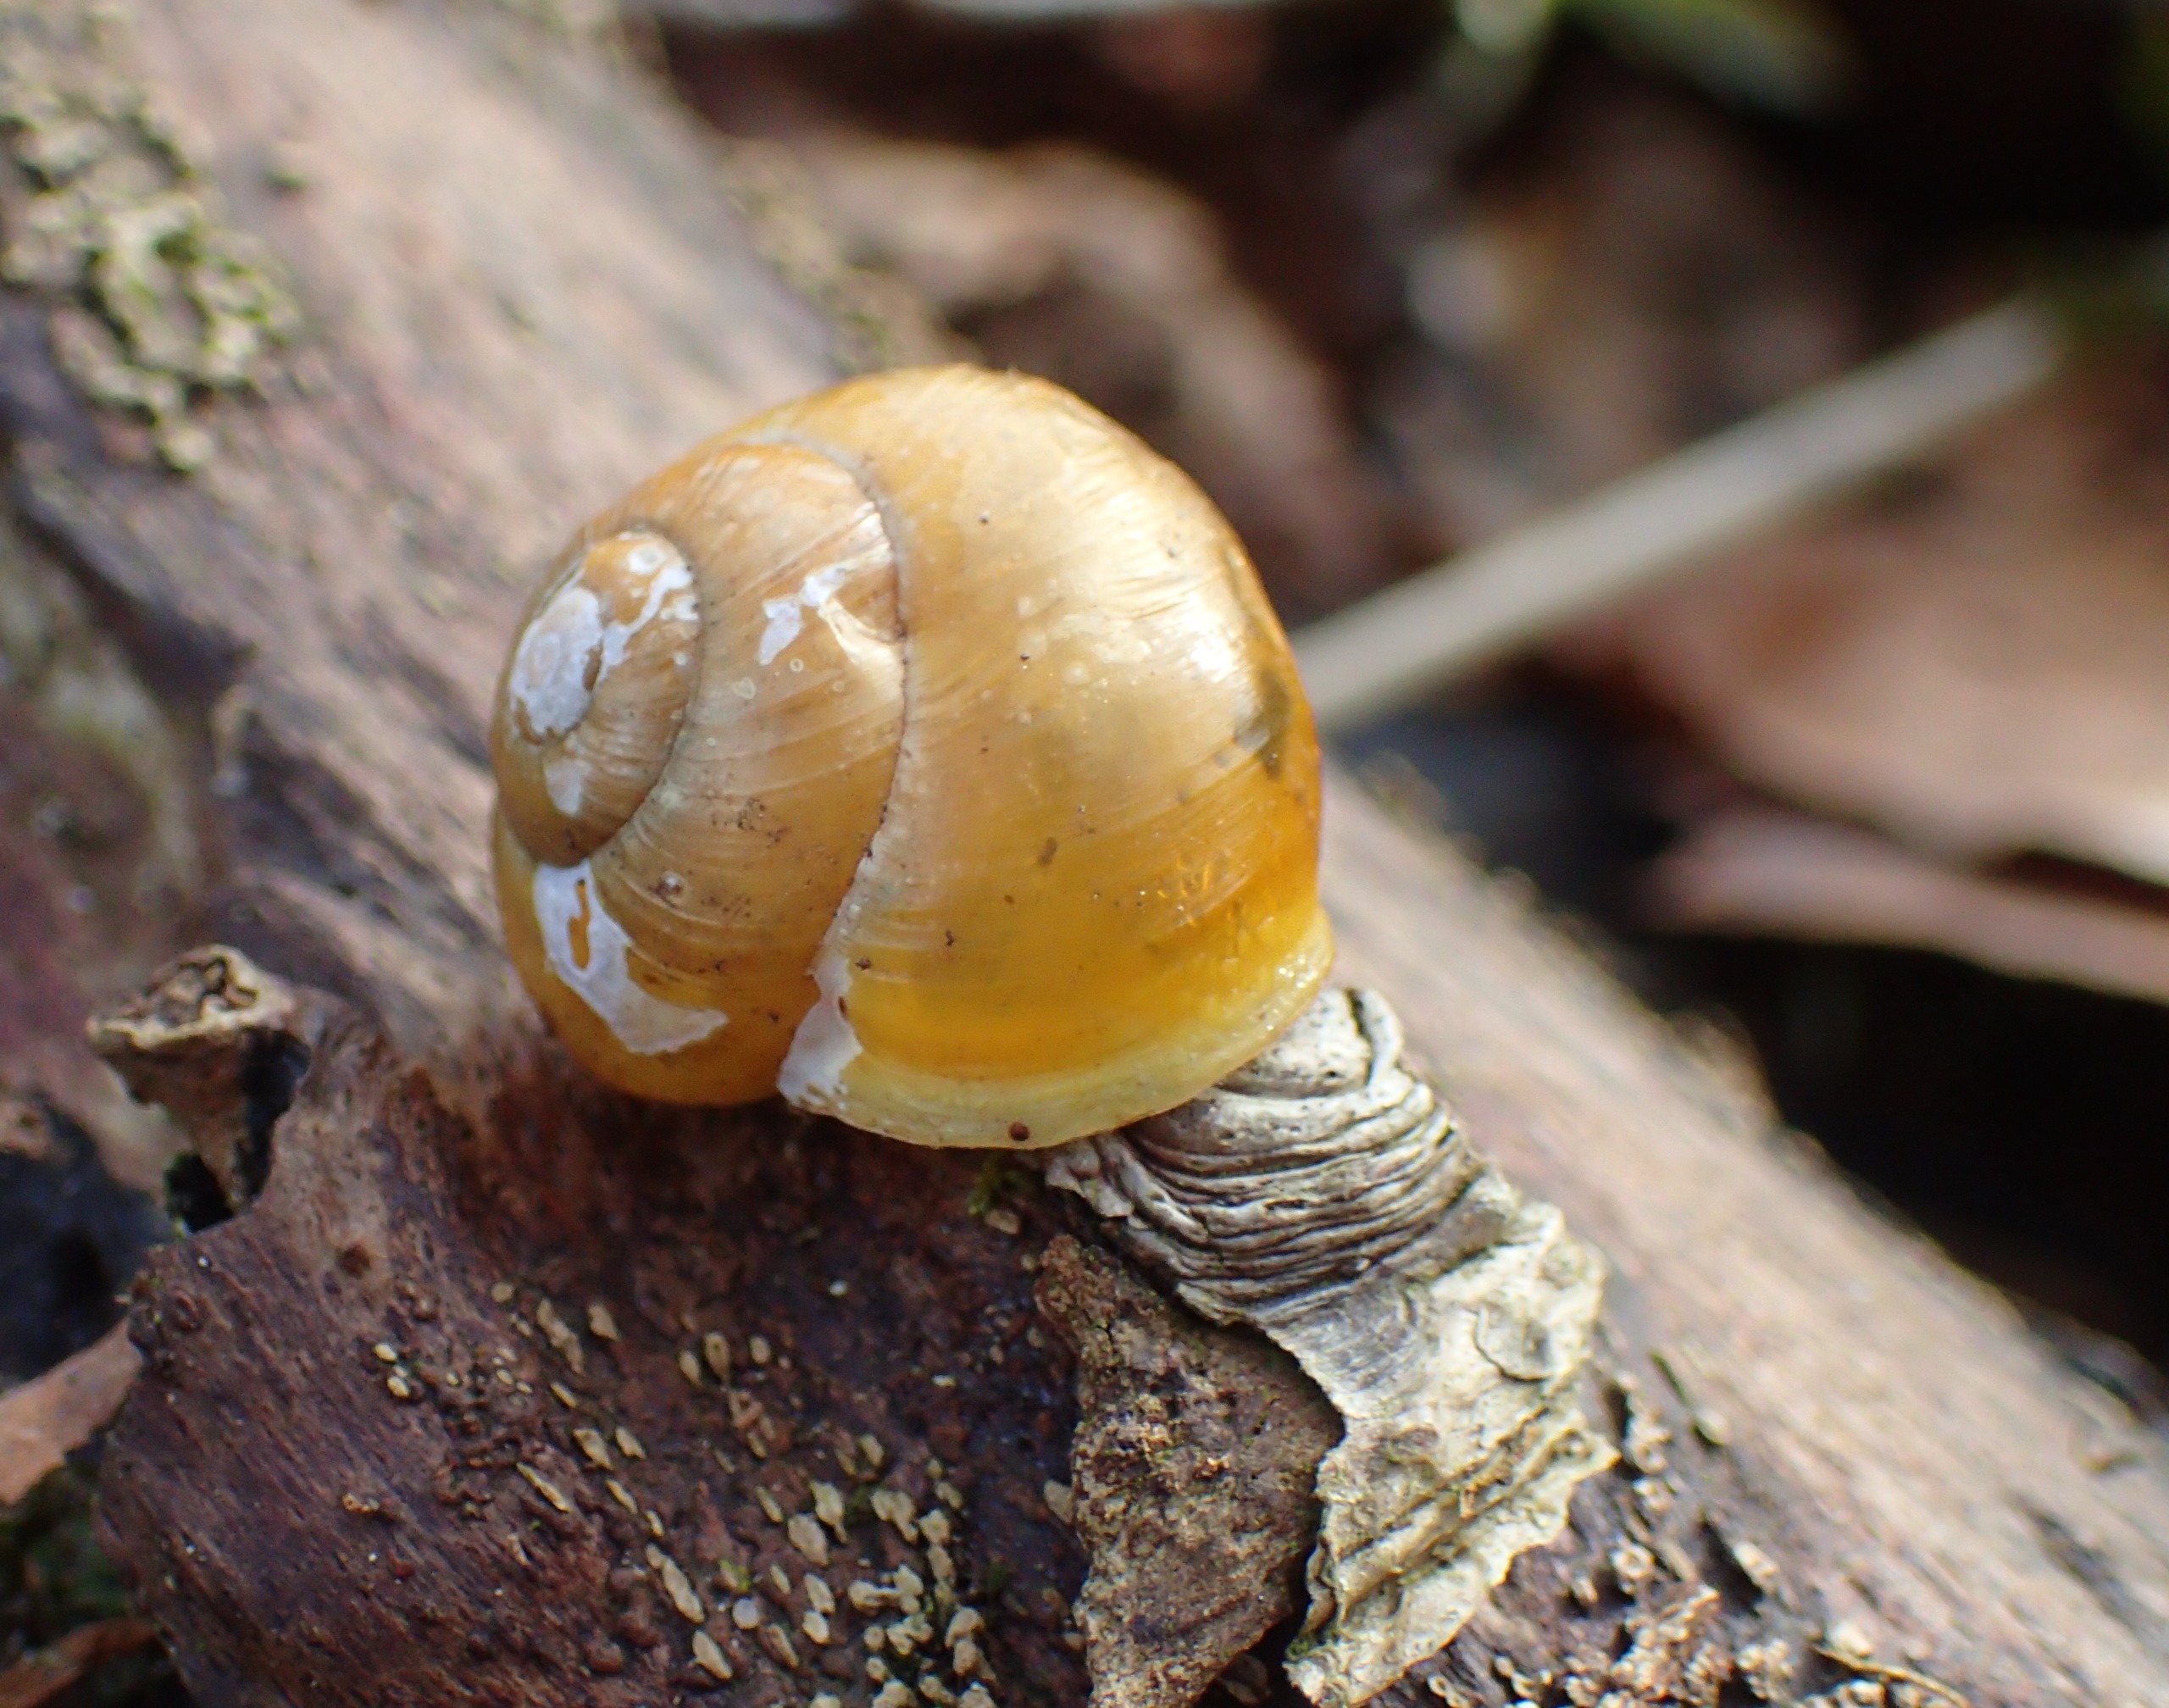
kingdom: Animalia
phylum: Mollusca
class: Gastropoda
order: Stylommatophora
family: Helicidae
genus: Cepaea
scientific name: Cepaea hortensis
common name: Havesnegl
